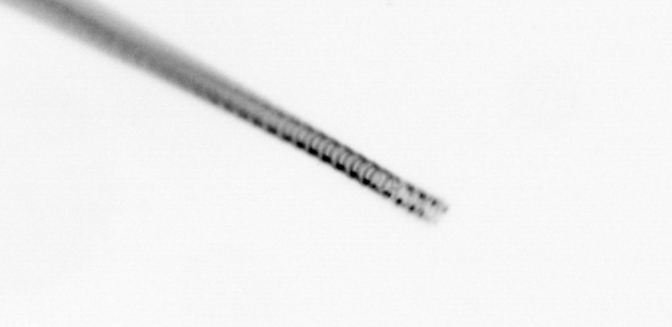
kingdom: Chromista
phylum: Ochrophyta
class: Bacillariophyceae
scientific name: Bacillariophyceae
